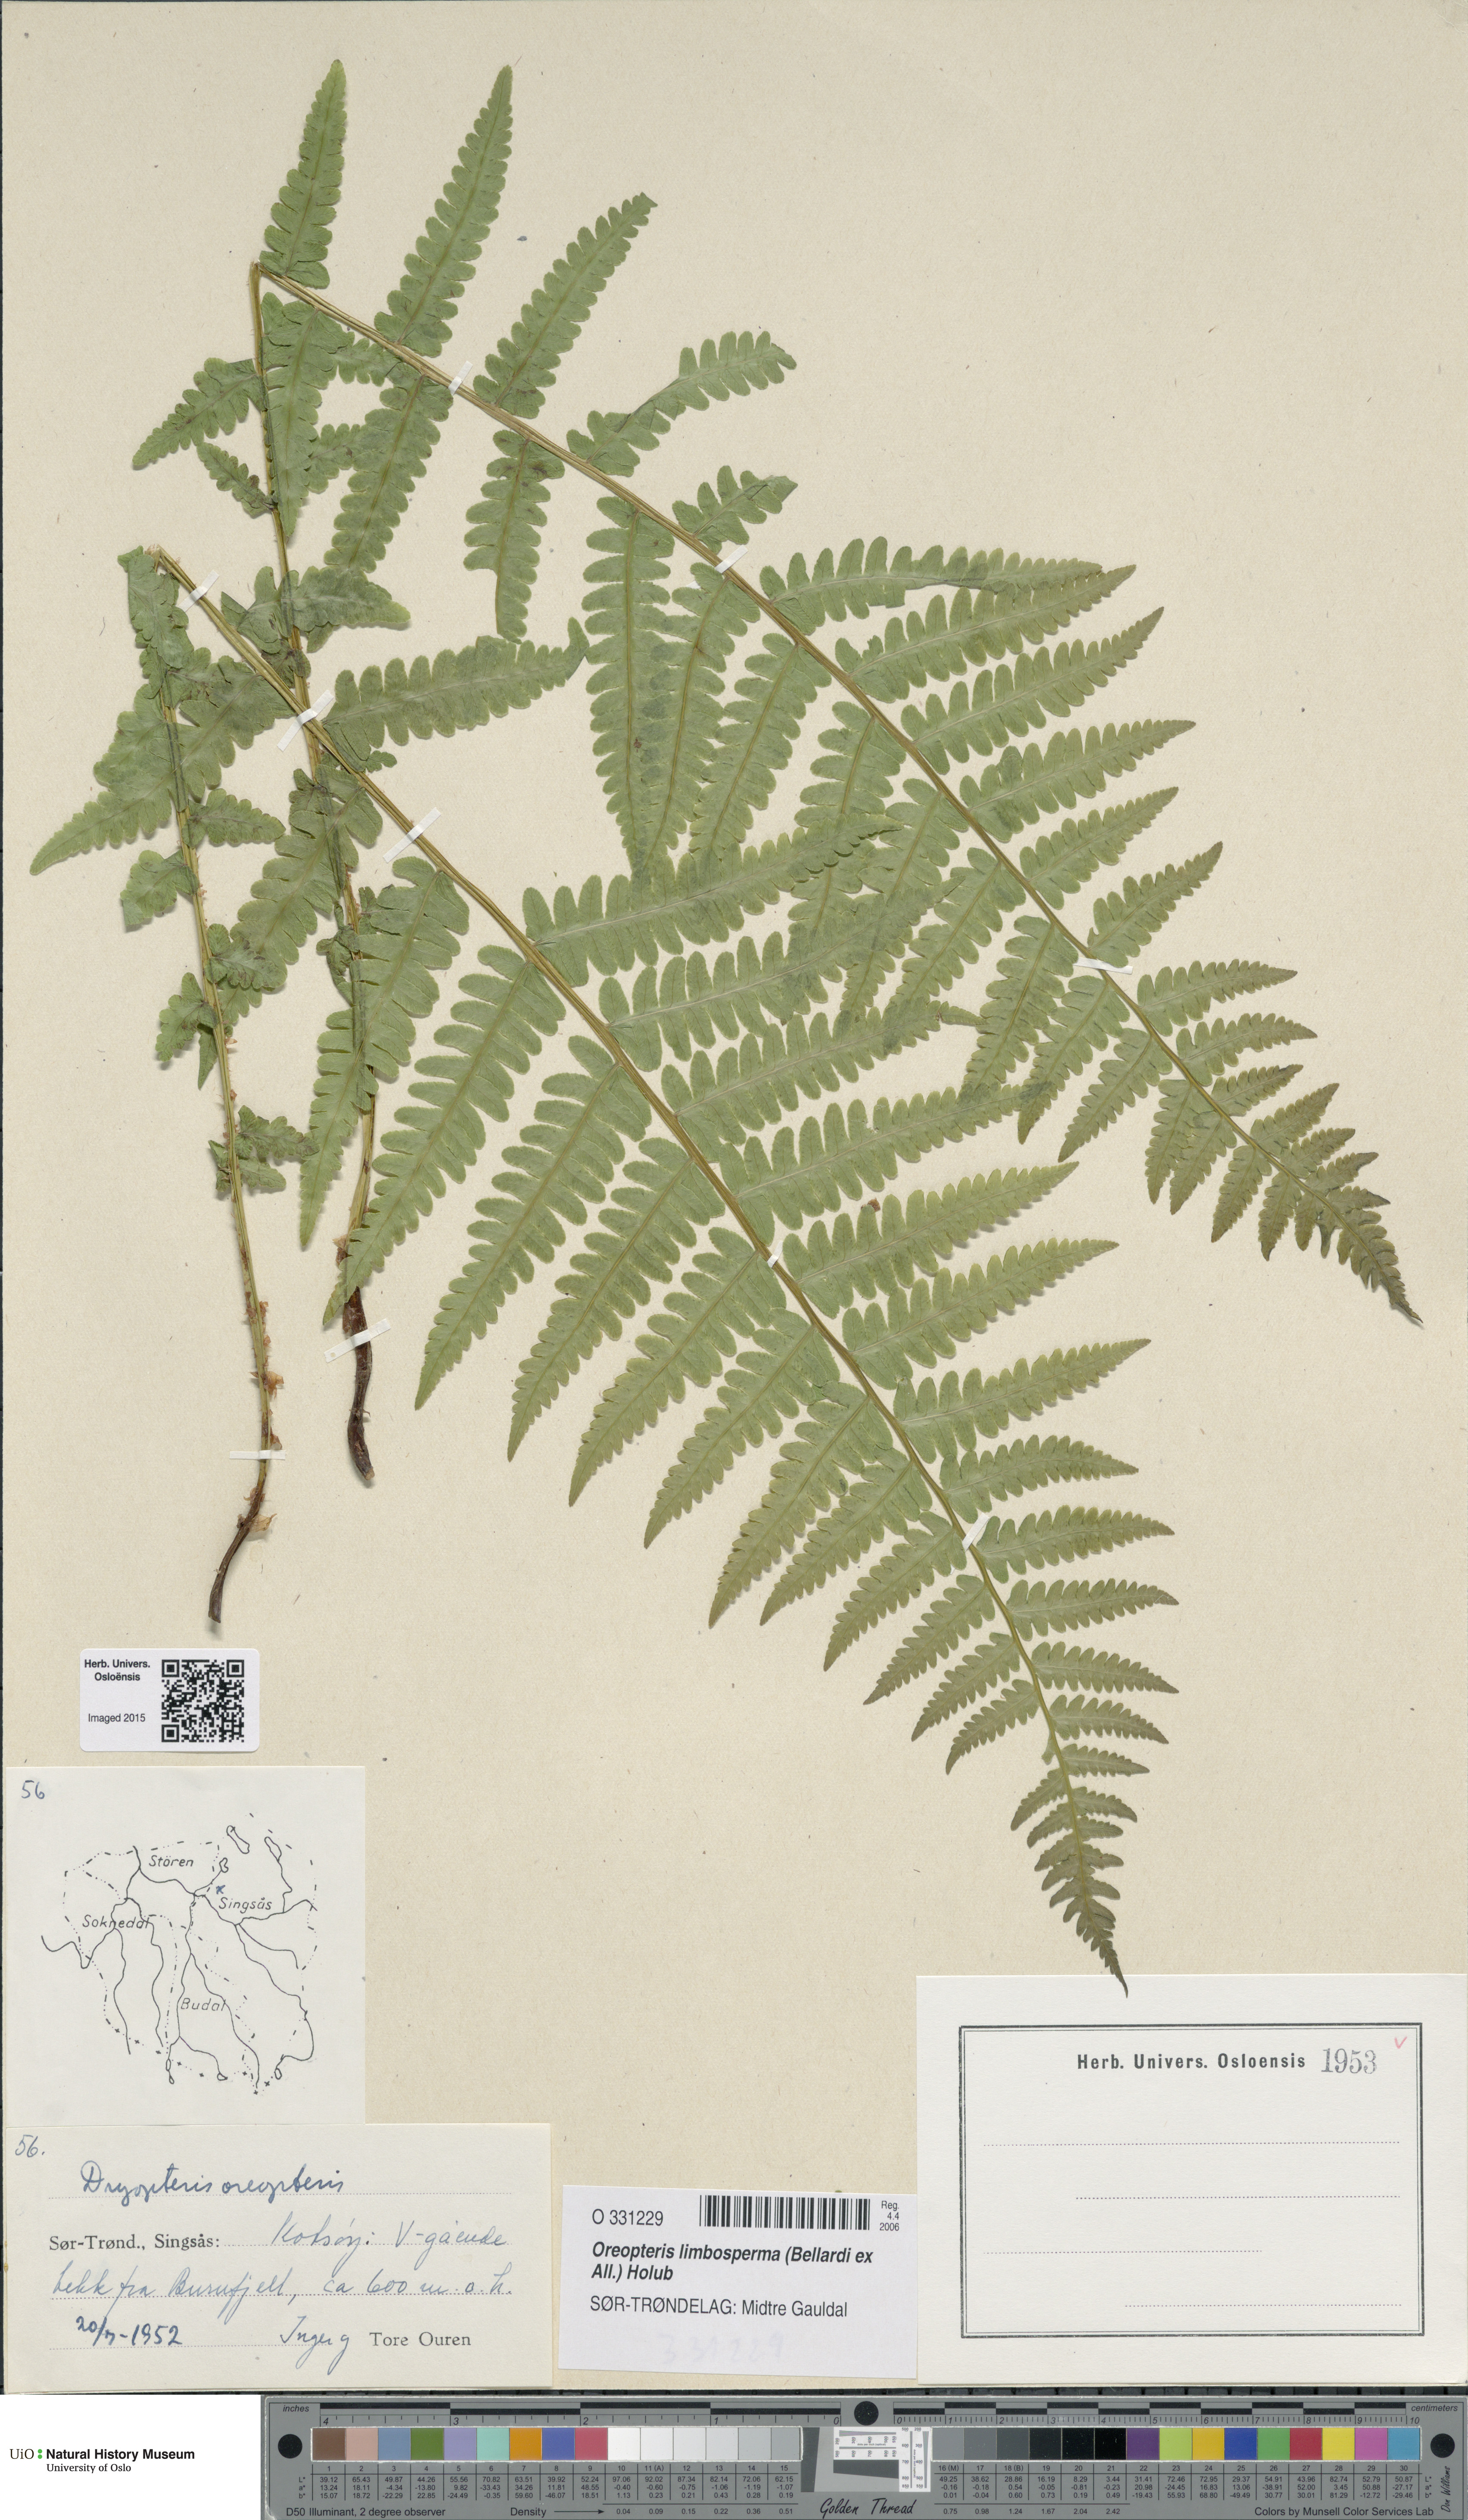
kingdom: Plantae
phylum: Tracheophyta
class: Polypodiopsida
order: Polypodiales
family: Thelypteridaceae
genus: Oreopteris
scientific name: Oreopteris limbosperma
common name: Lemon-scented fern
